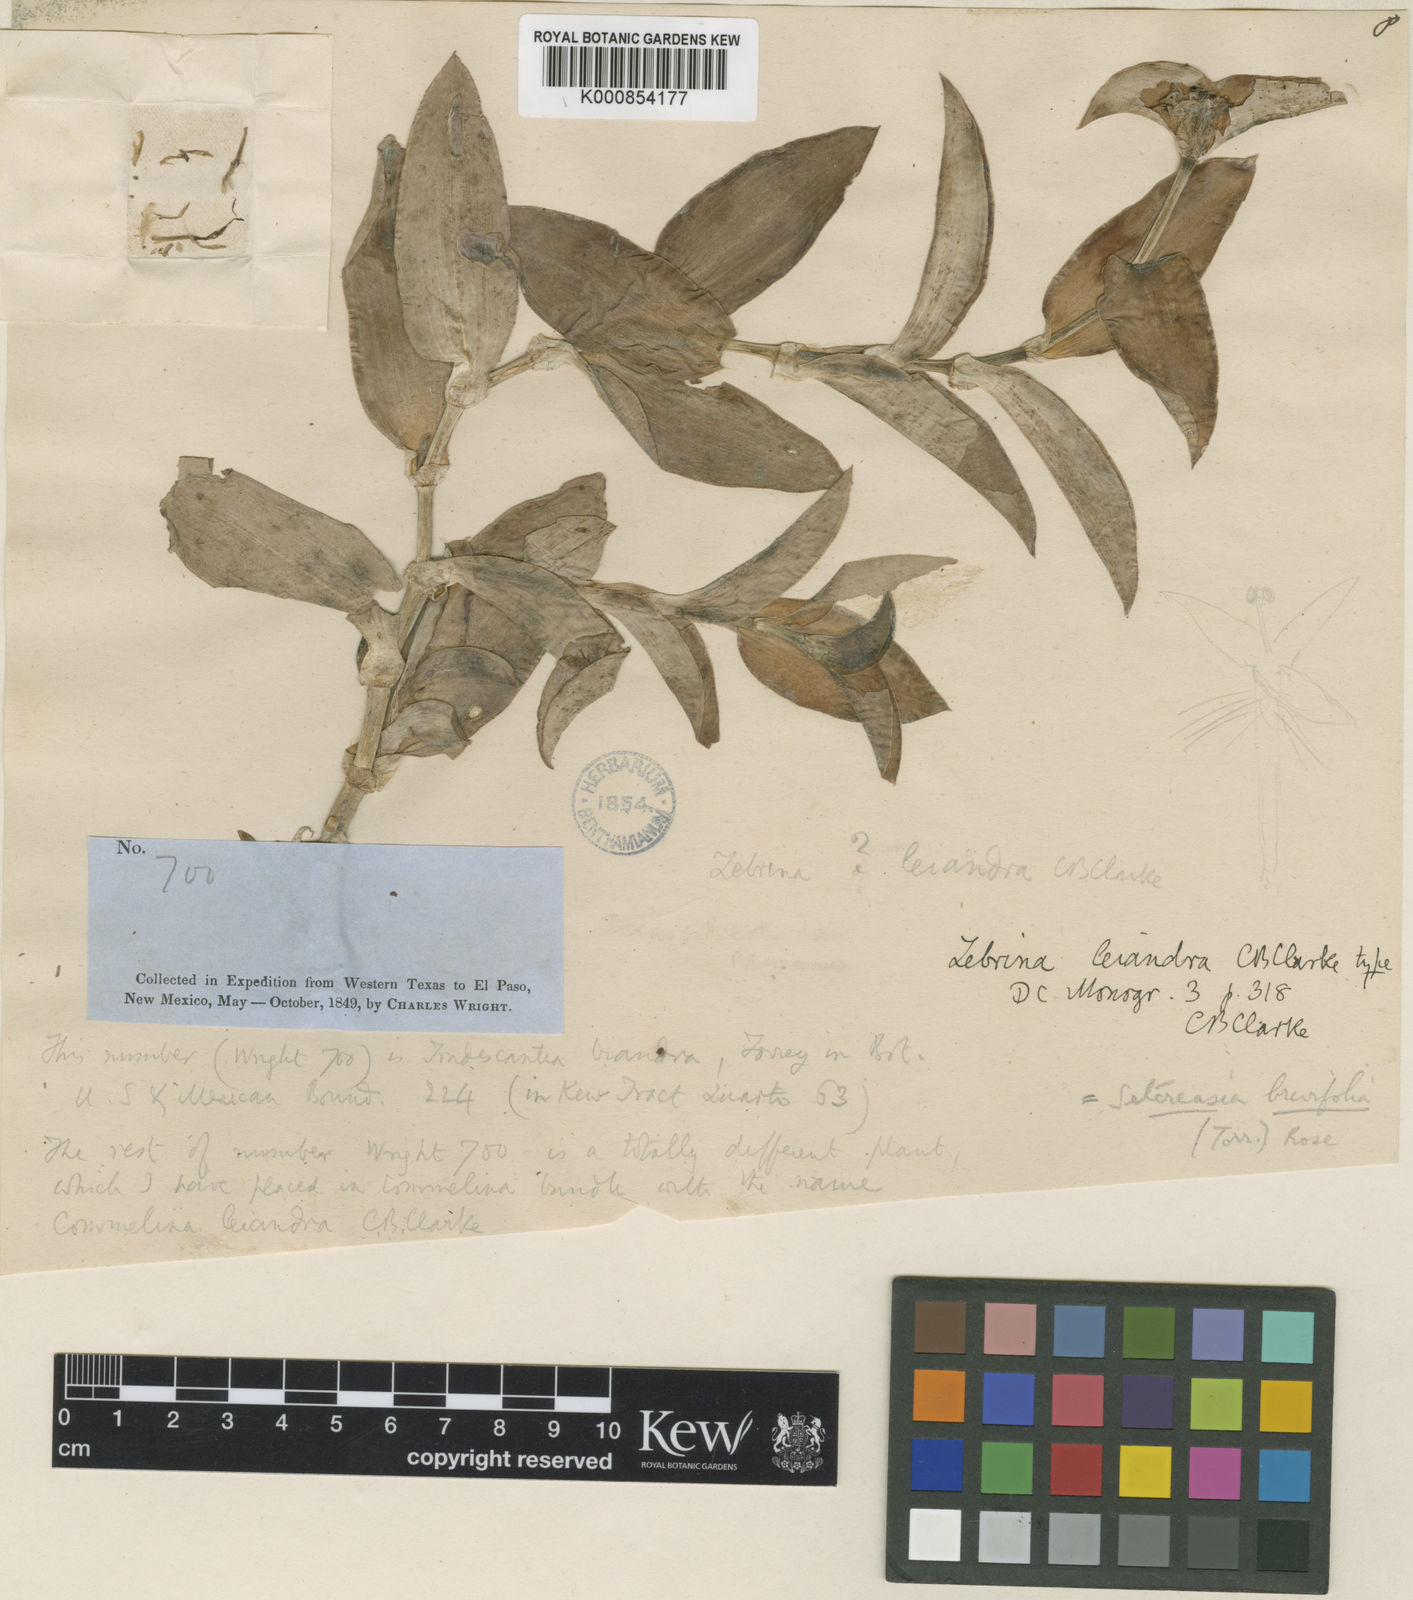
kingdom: Plantae
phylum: Tracheophyta
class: Liliopsida
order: Commelinales
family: Commelinaceae
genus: Tradescantia
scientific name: Tradescantia brevifolia
